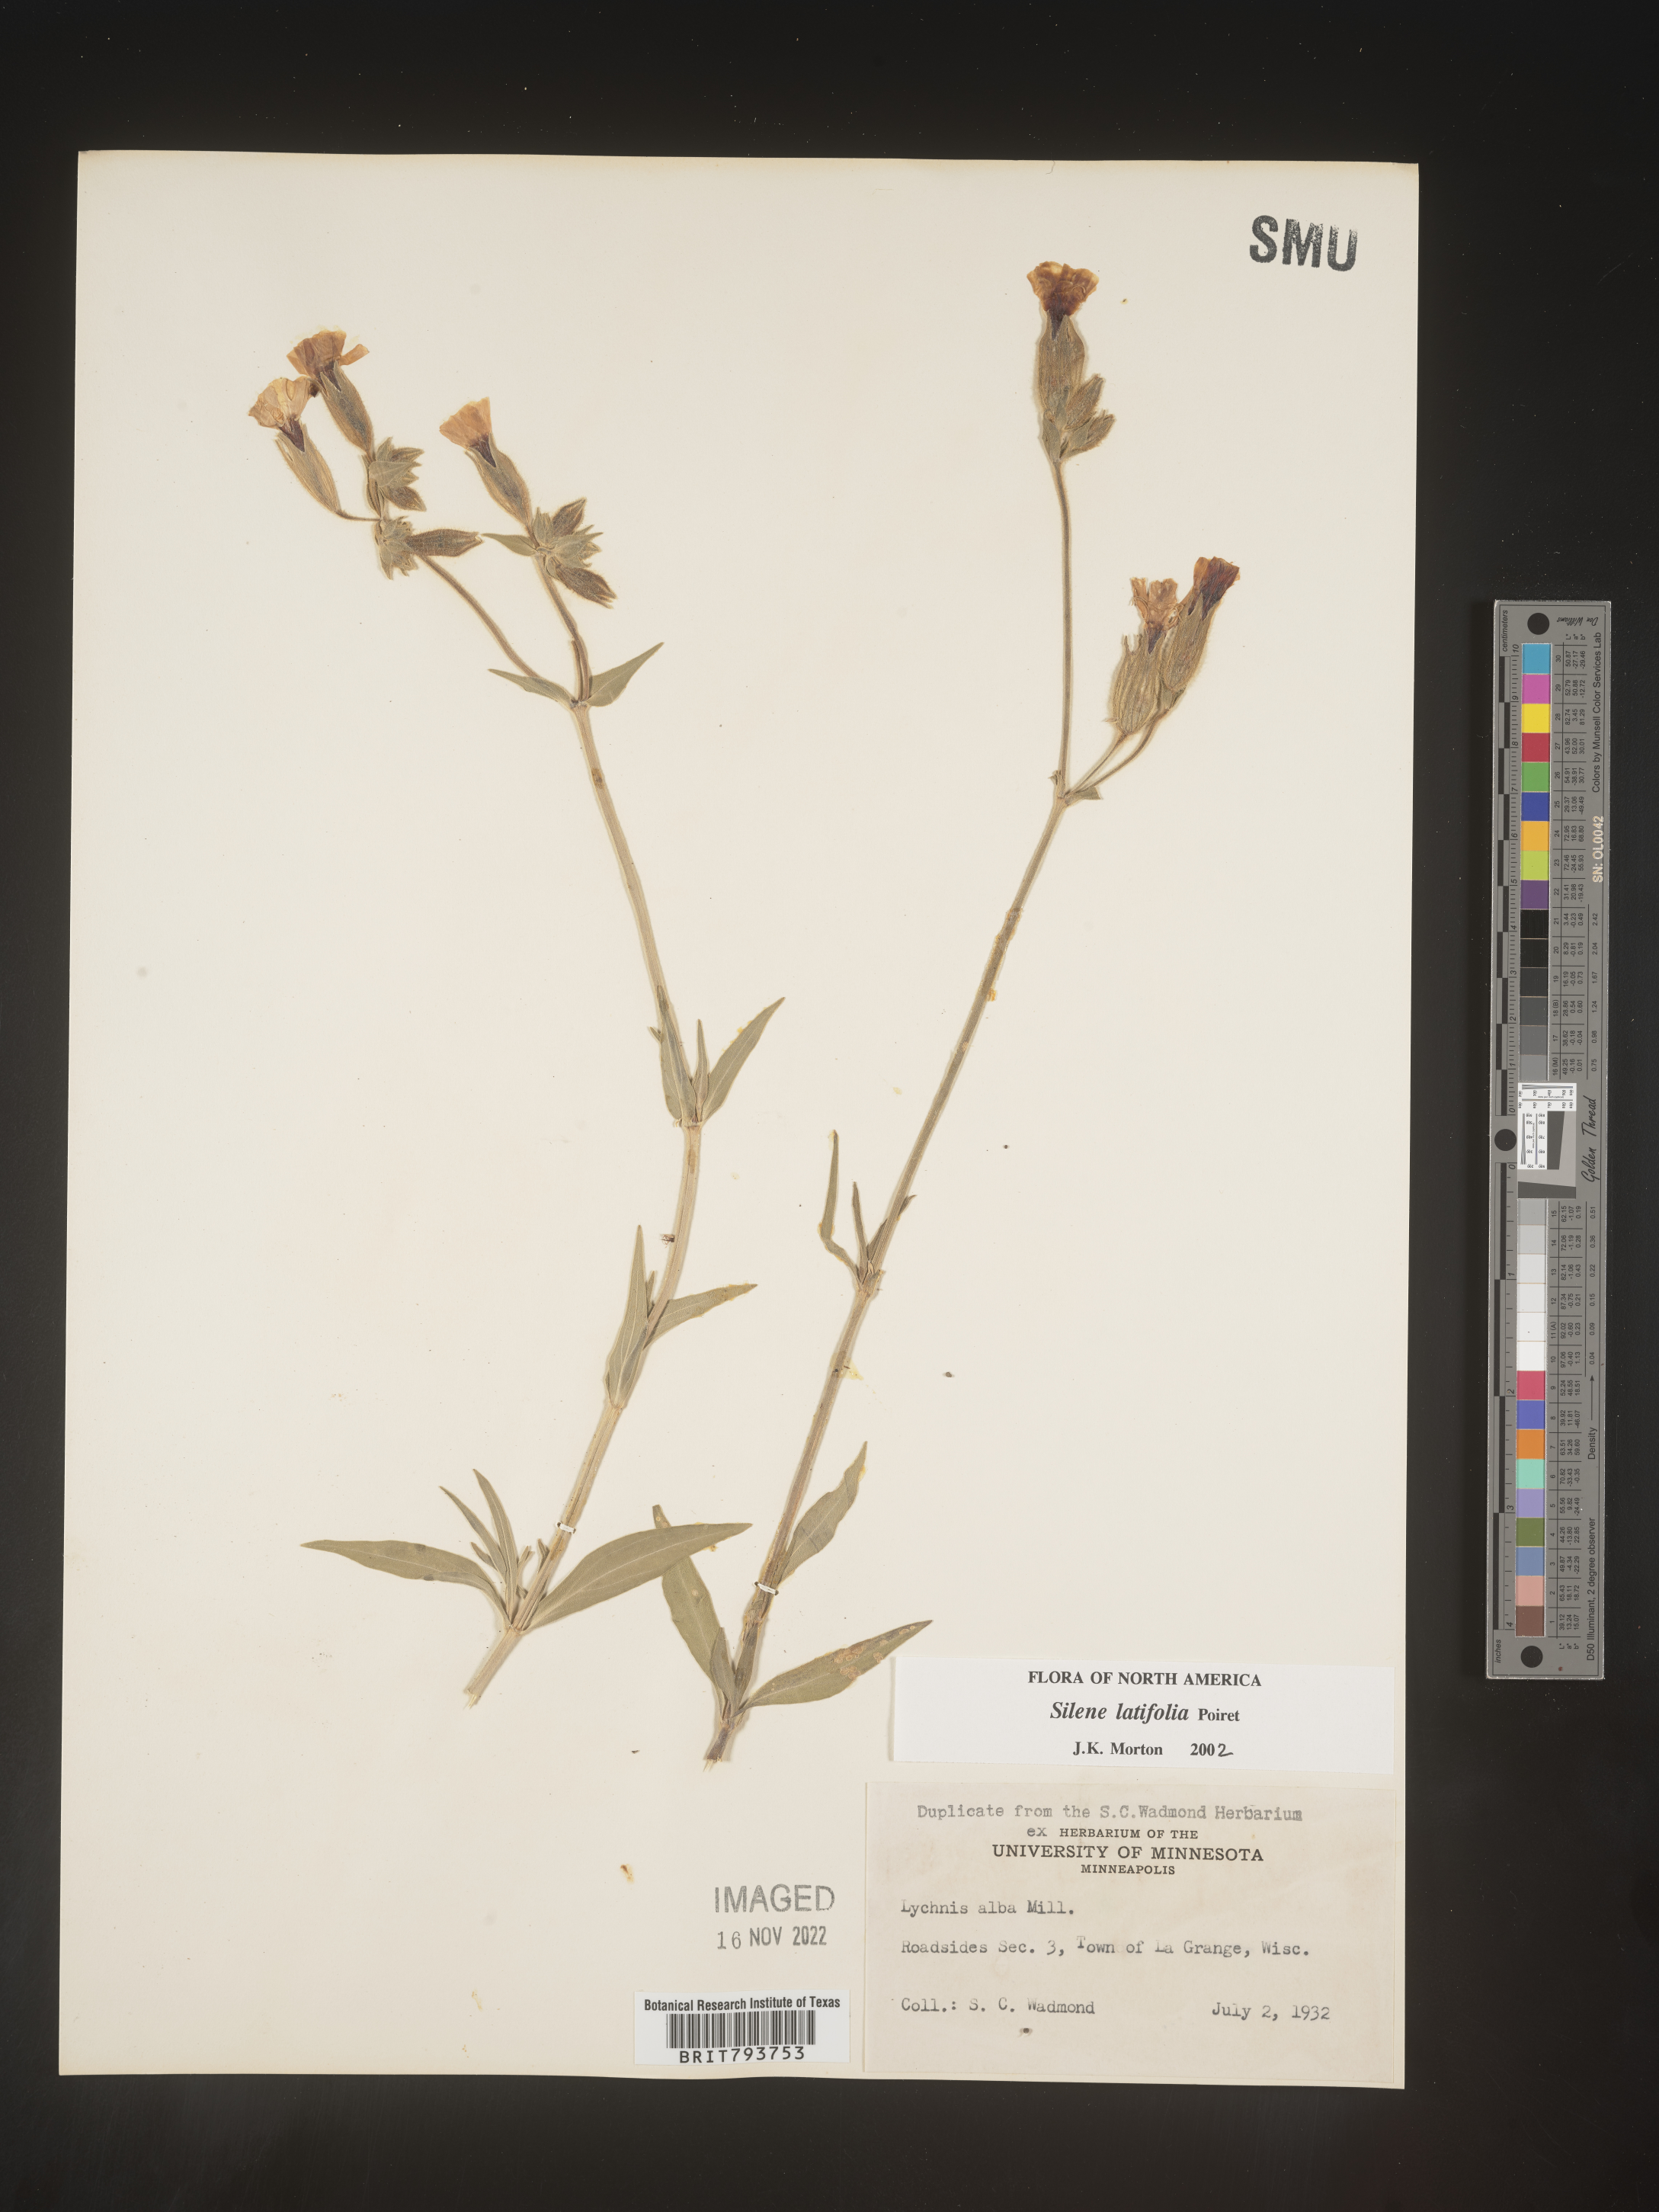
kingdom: Plantae
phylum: Tracheophyta
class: Magnoliopsida
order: Caryophyllales
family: Caryophyllaceae
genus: Silene
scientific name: Silene latifolia
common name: White campion
